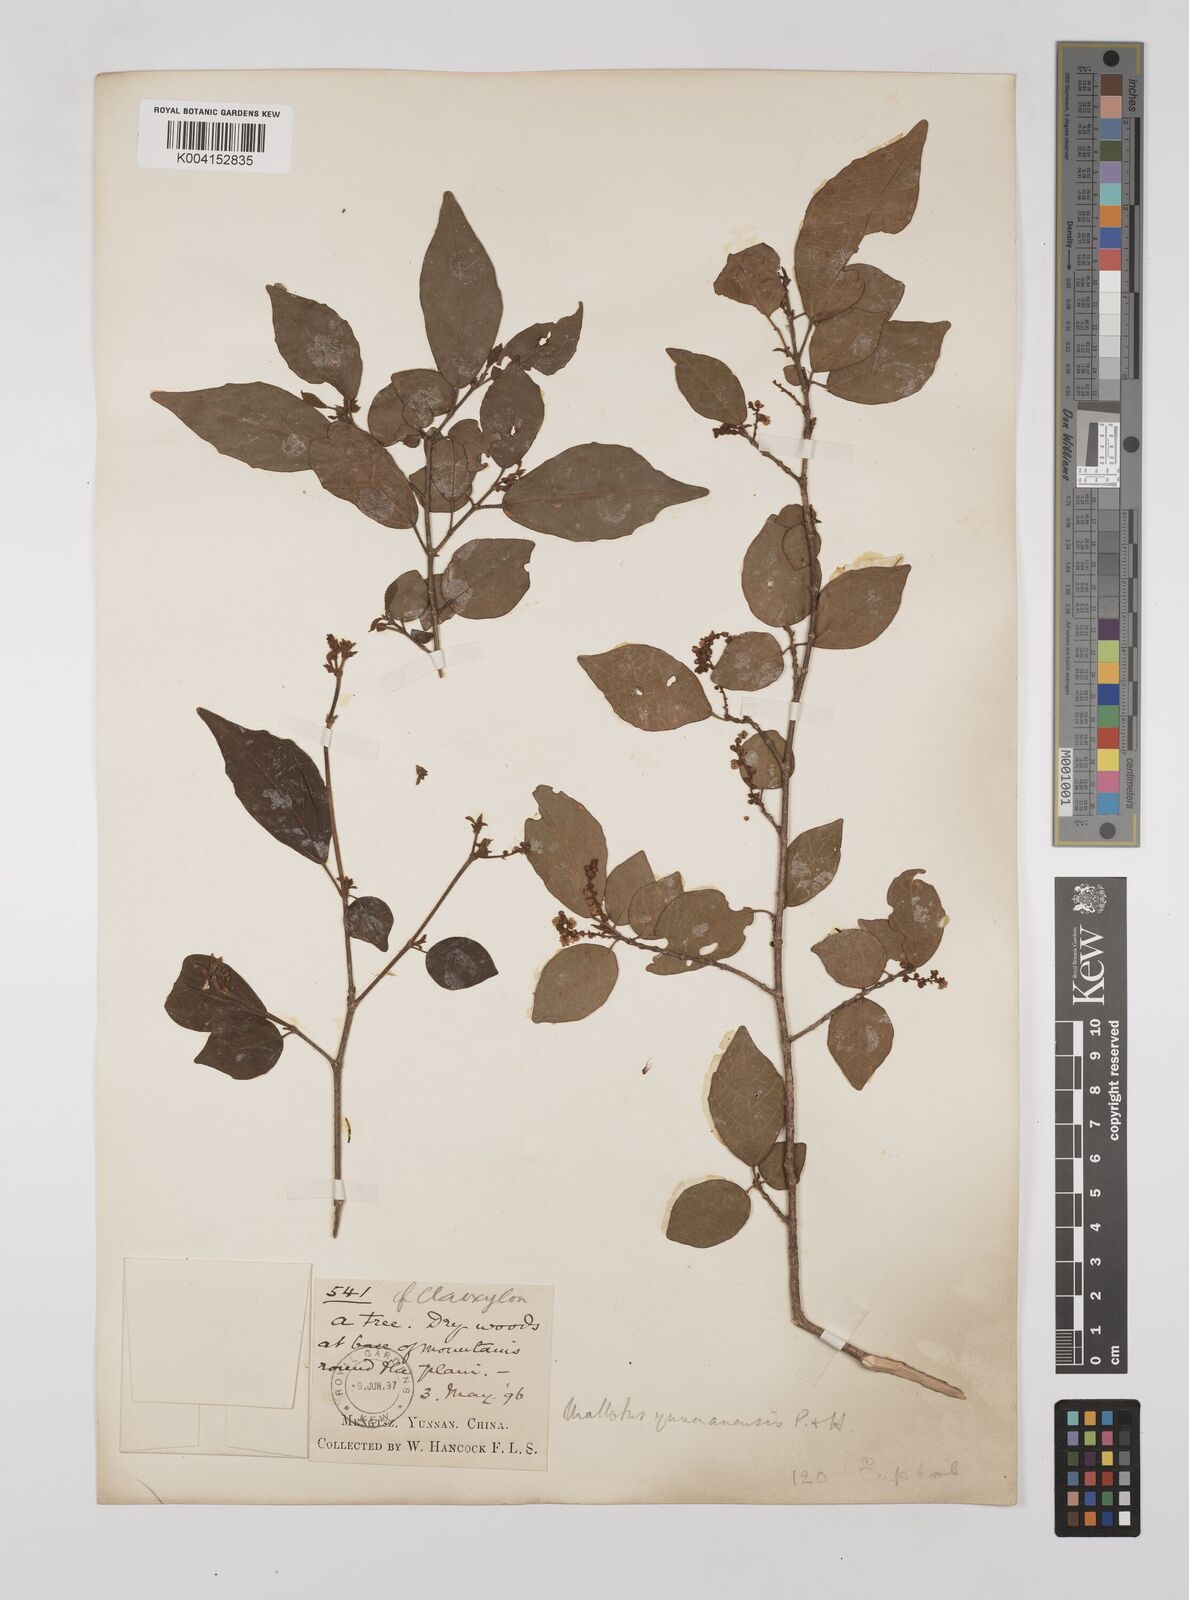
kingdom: Plantae
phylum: Tracheophyta
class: Magnoliopsida
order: Malpighiales
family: Euphorbiaceae
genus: Mallotus
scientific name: Mallotus yunnanensis
